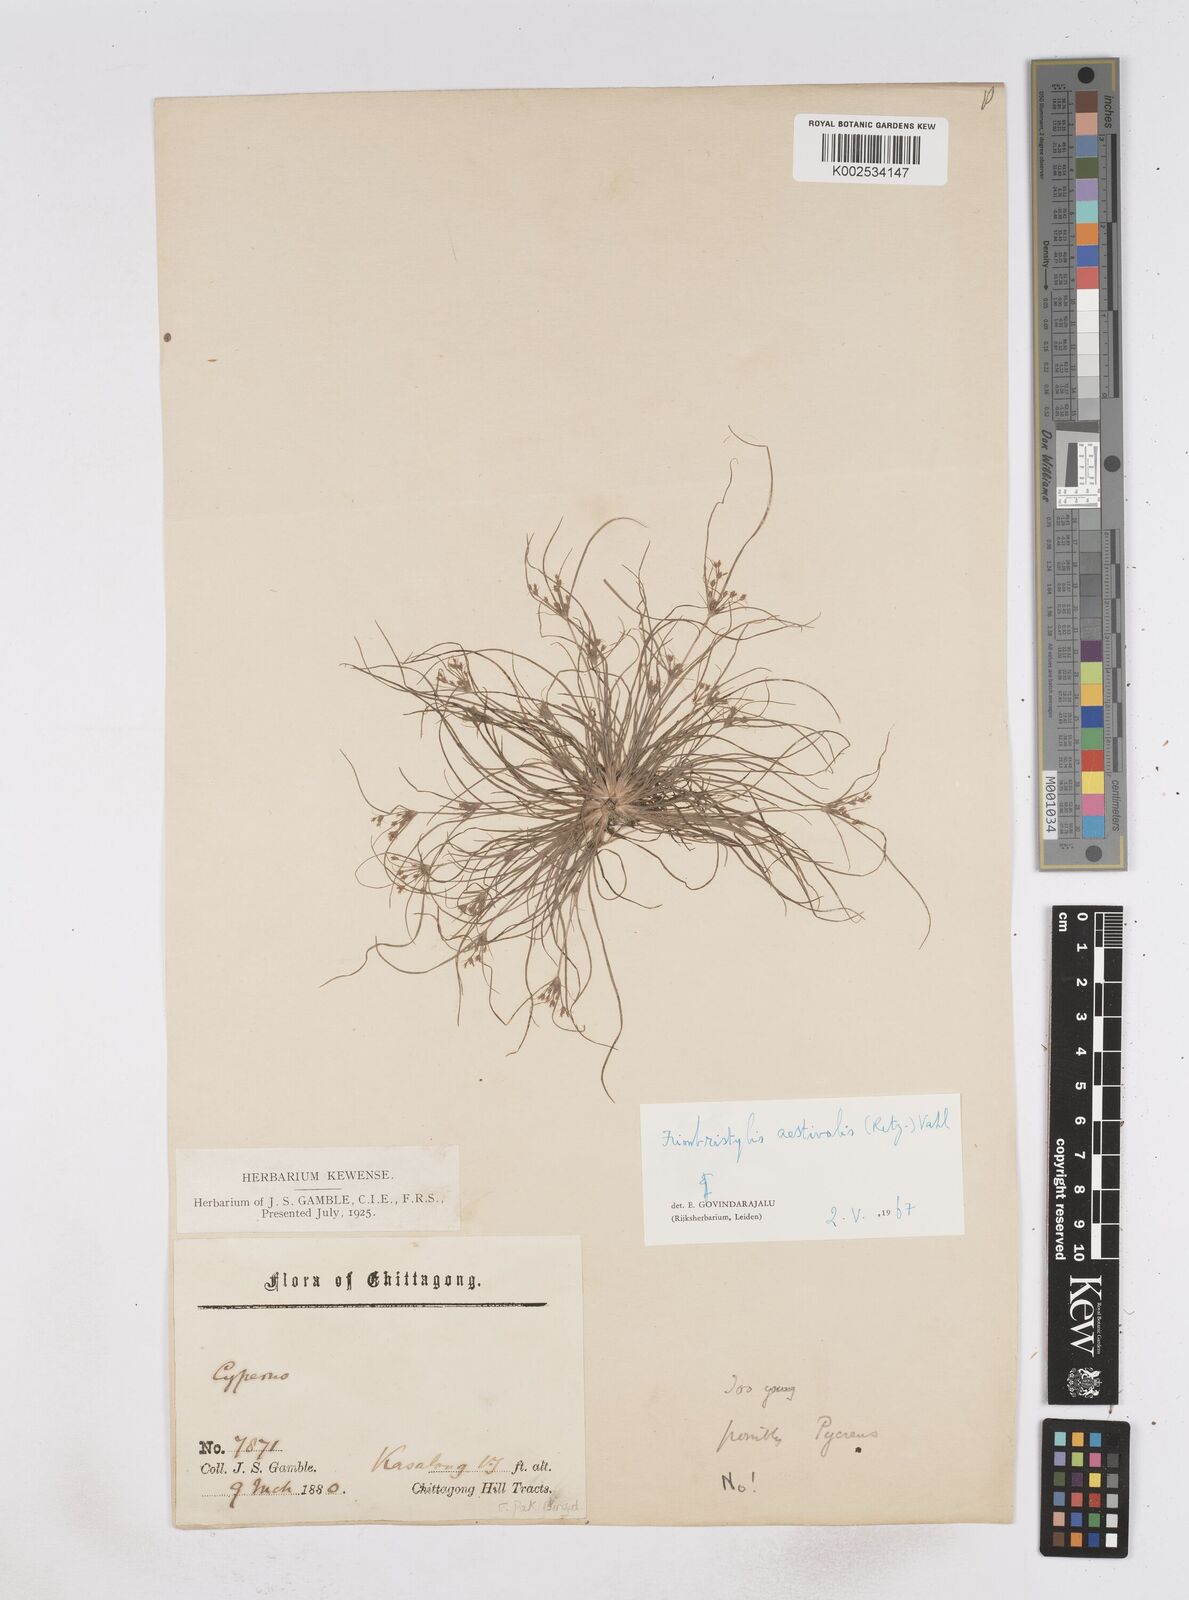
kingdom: Plantae
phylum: Tracheophyta
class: Liliopsida
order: Poales
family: Cyperaceae
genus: Fimbristylis
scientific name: Fimbristylis aestivalis
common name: Summer fimbry
